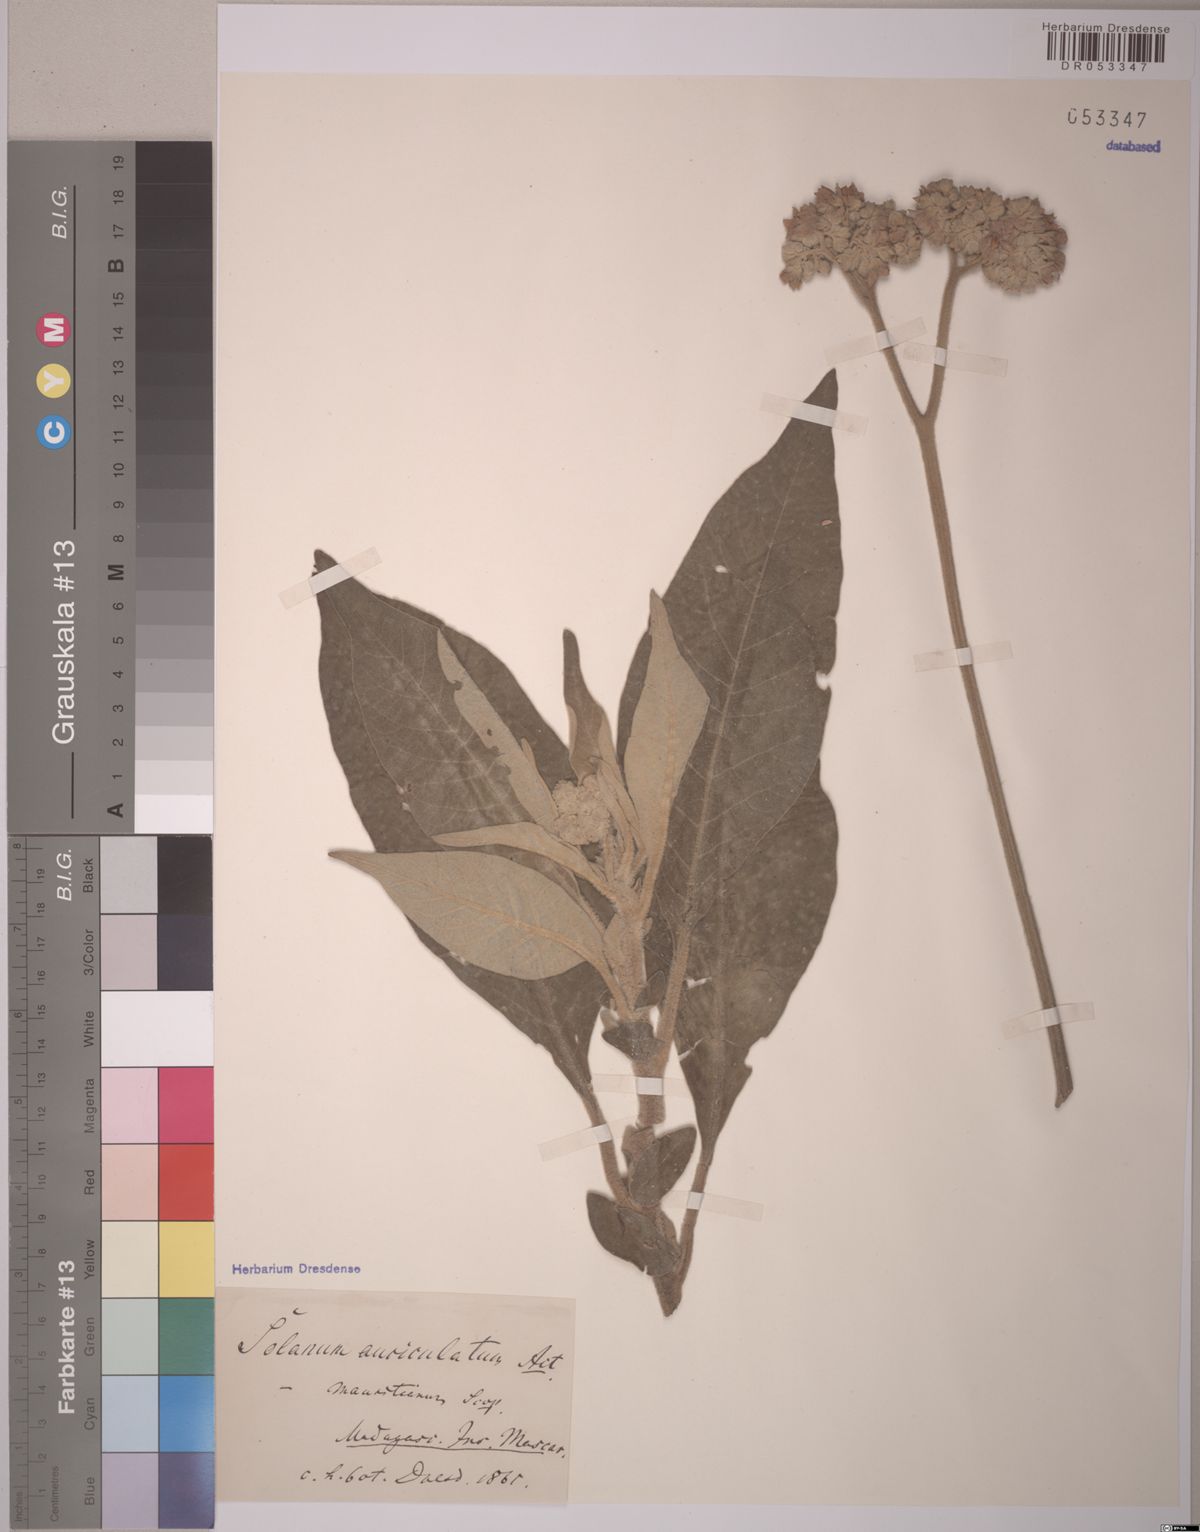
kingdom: Plantae
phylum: Tracheophyta
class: Magnoliopsida
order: Solanales
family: Solanaceae
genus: Solanum
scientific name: Solanum mauritianum
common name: Earleaf nightshade
